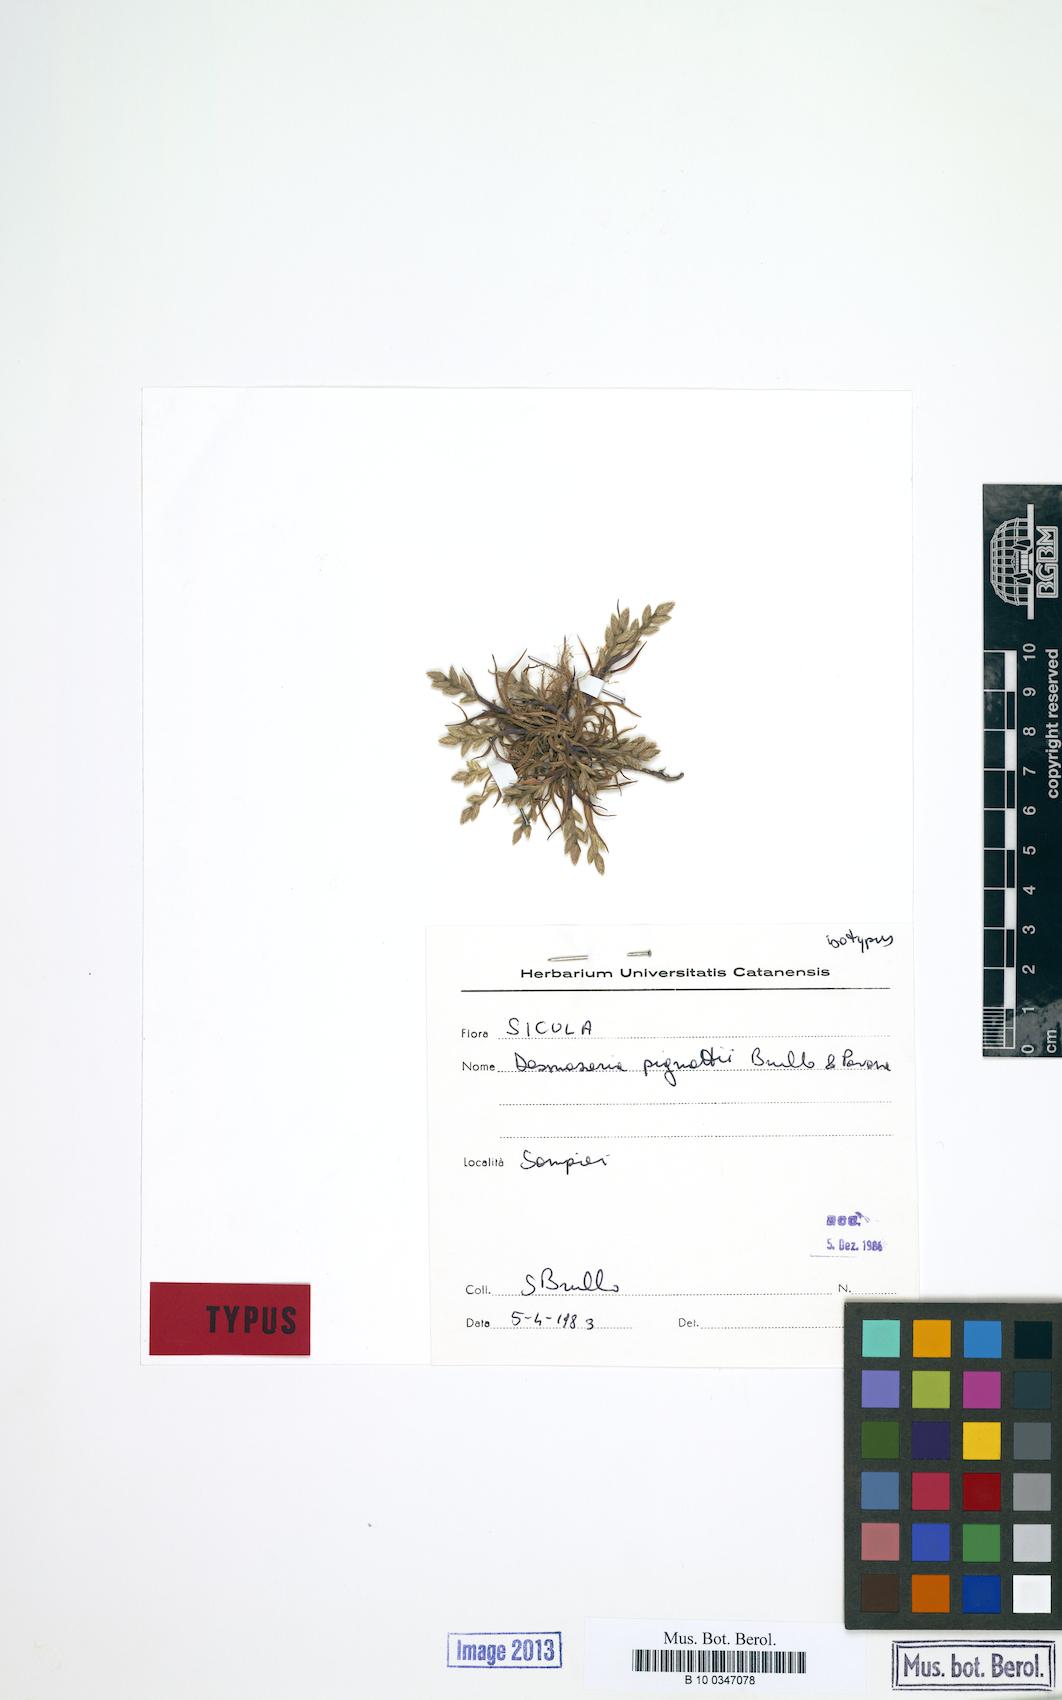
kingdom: Plantae
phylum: Tracheophyta
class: Liliopsida
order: Poales
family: Poaceae
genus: Desmazeria
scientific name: Desmazeria sicula
